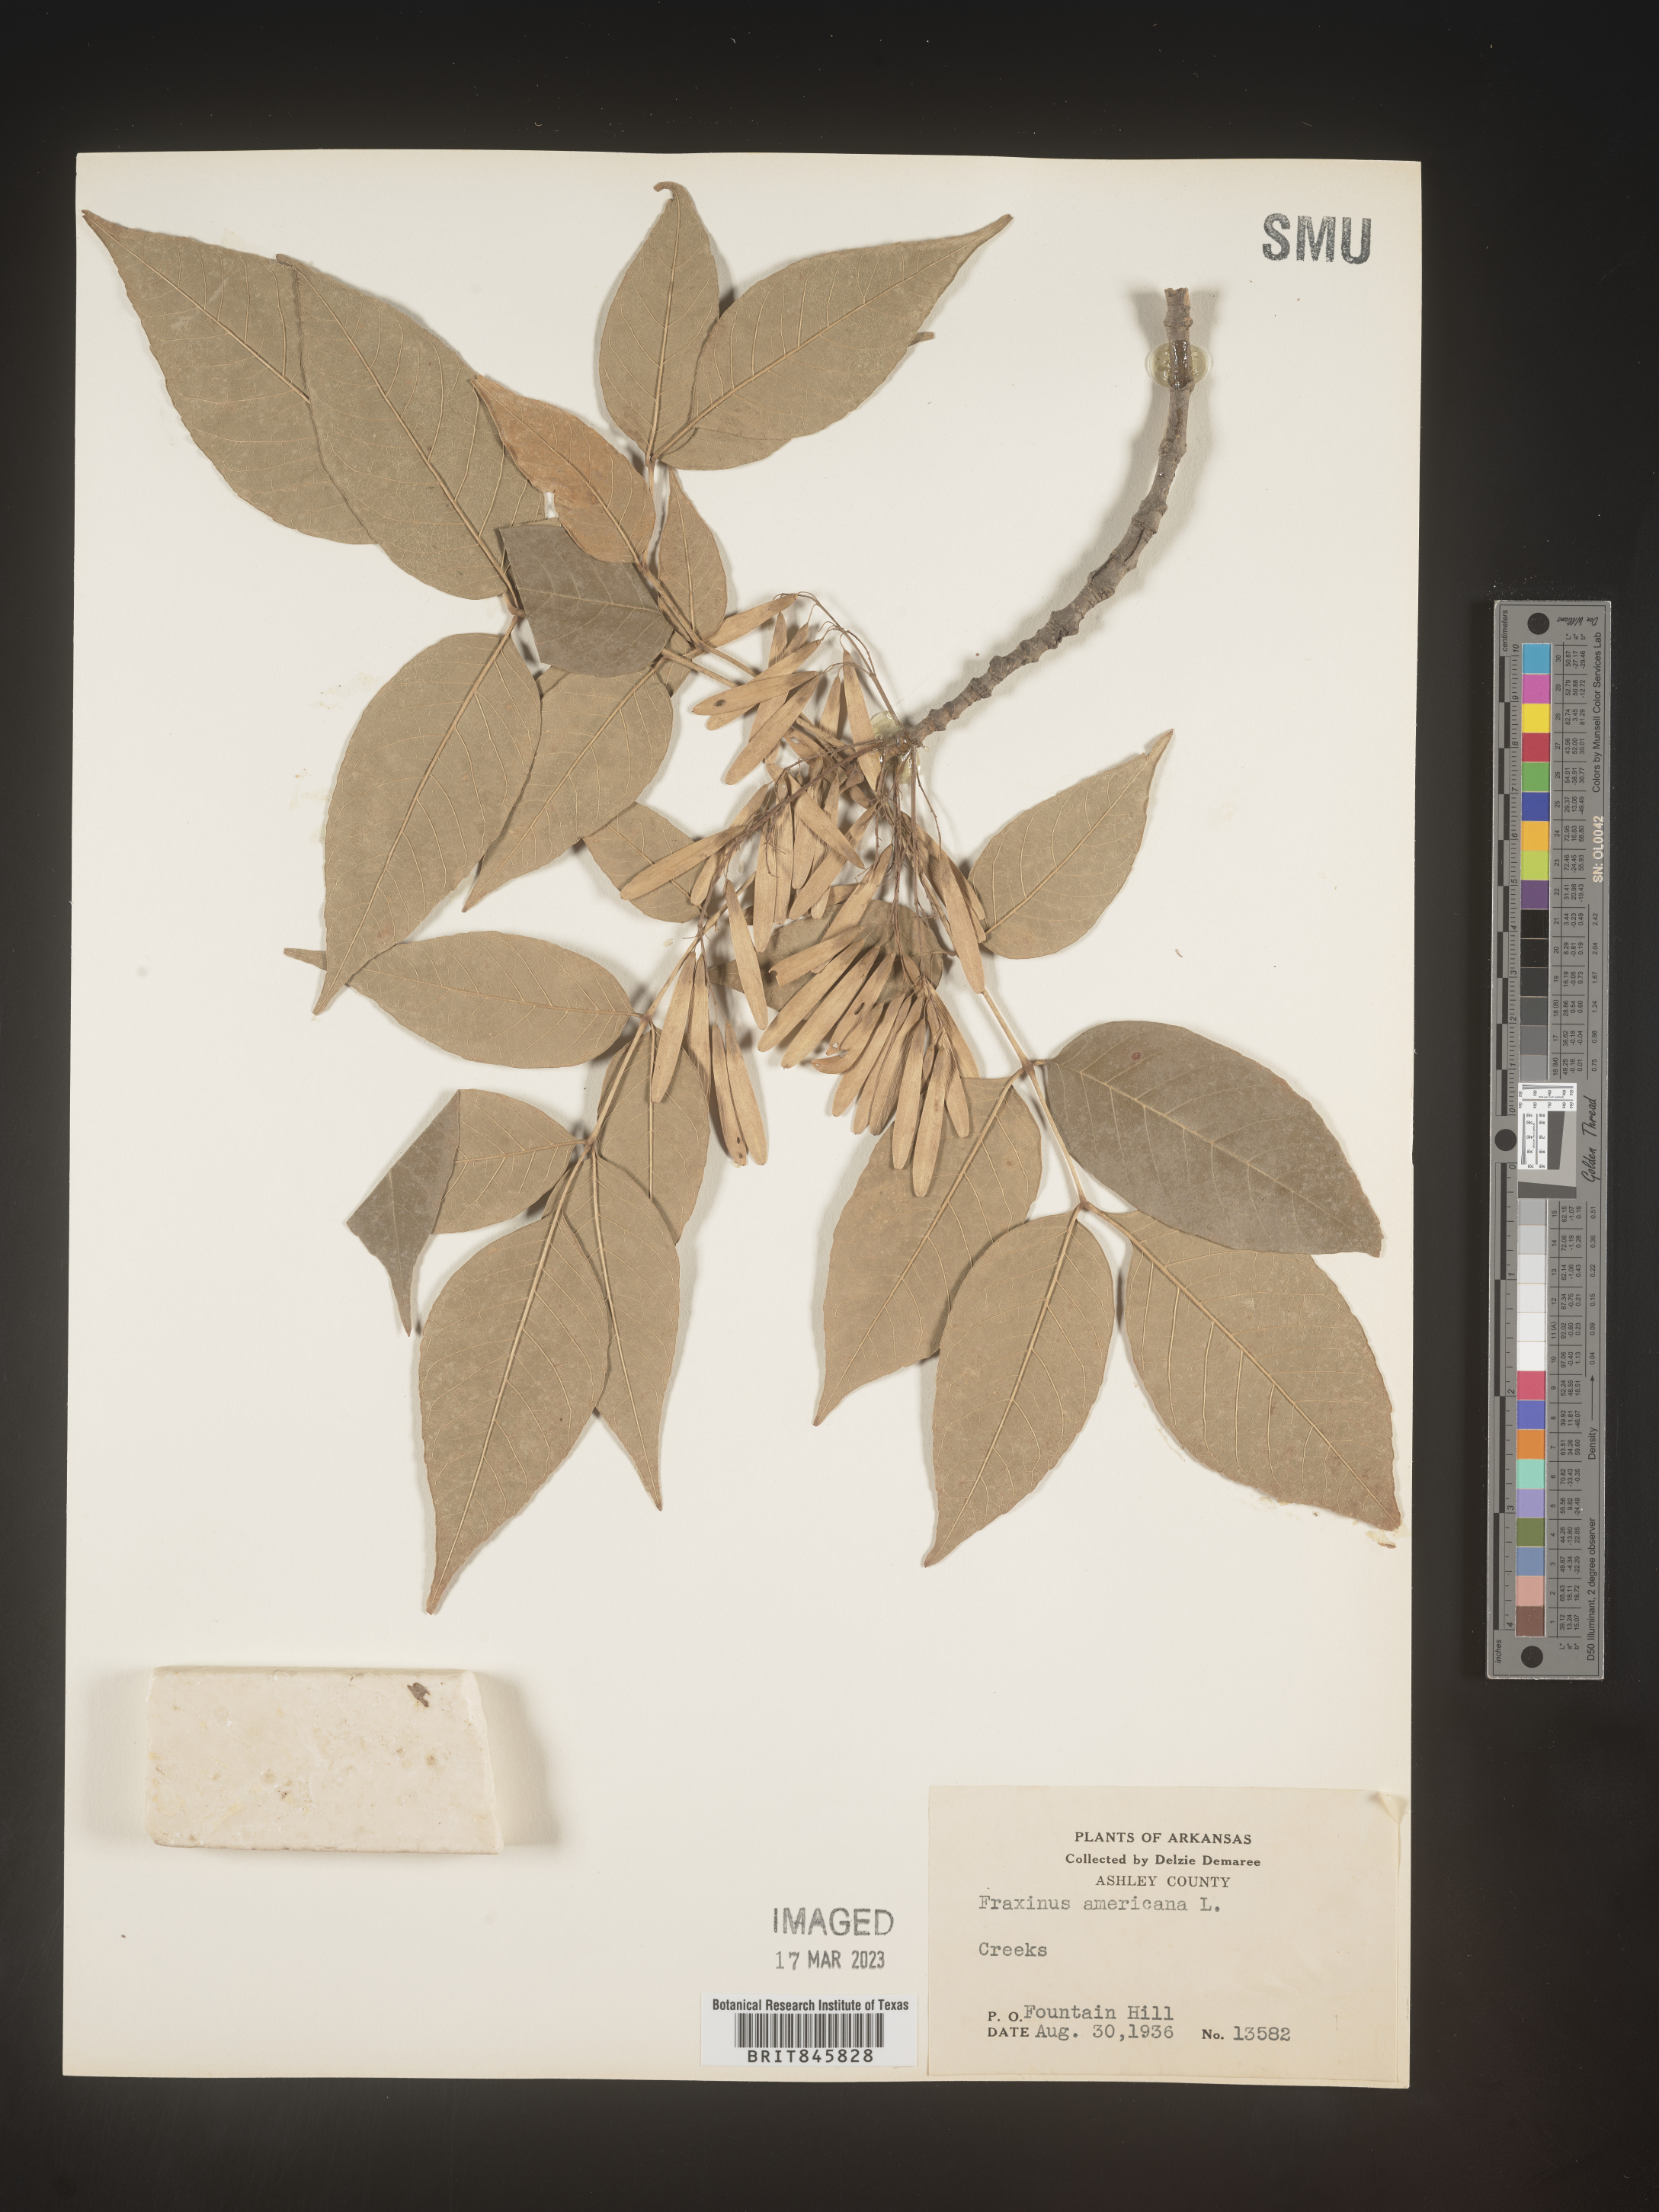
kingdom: Plantae
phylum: Tracheophyta
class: Magnoliopsida
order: Lamiales
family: Oleaceae
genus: Fraxinus
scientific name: Fraxinus americana
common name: White ash
